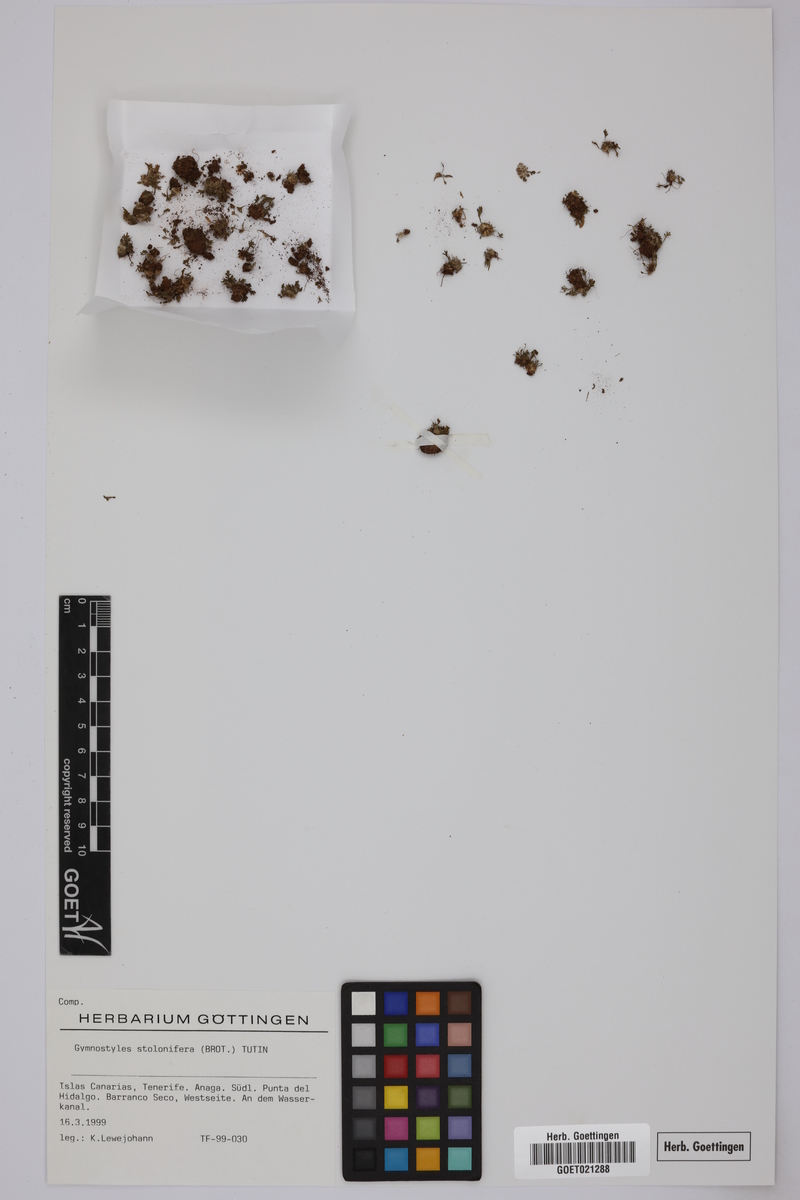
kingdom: Plantae
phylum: Tracheophyta
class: Magnoliopsida
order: Asterales
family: Asteraceae
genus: Soliva
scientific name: Soliva stolonifera
